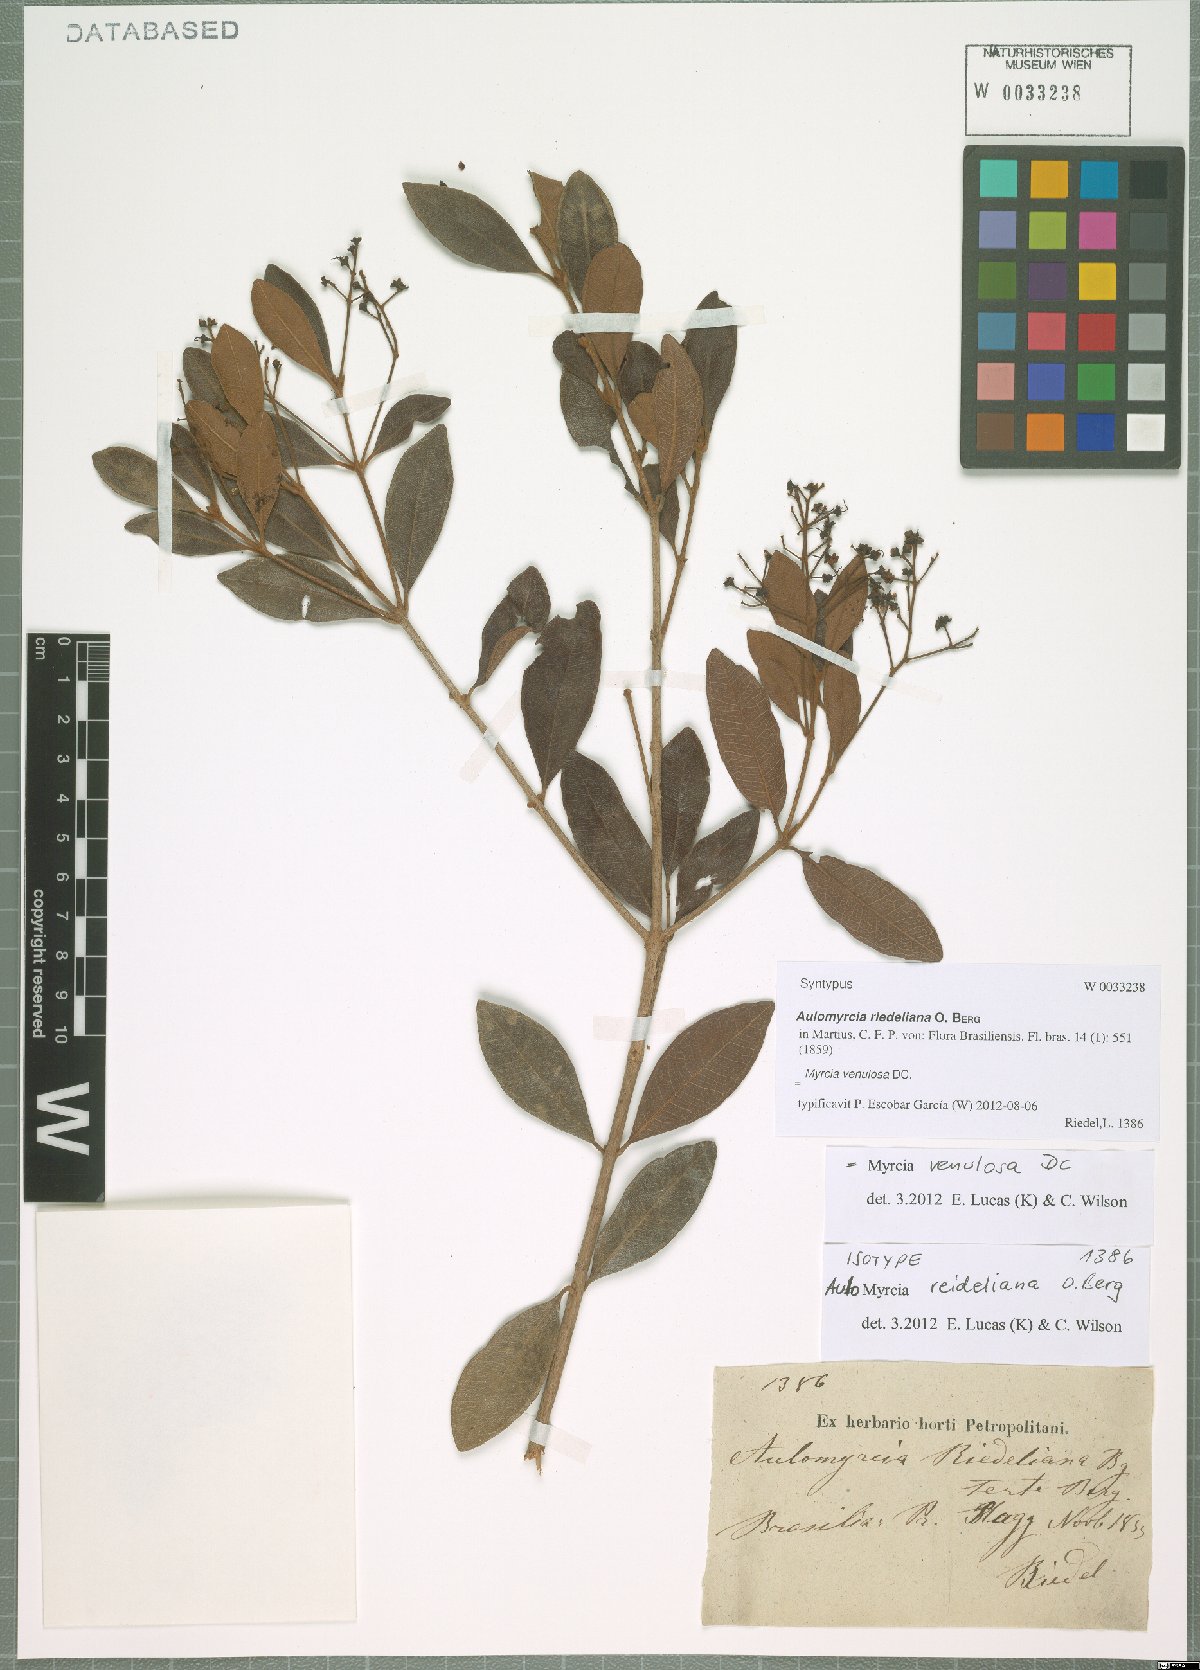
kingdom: Plantae
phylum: Tracheophyta
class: Magnoliopsida
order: Myrtales
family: Myrtaceae
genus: Myrcia
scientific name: Myrcia venulosa
